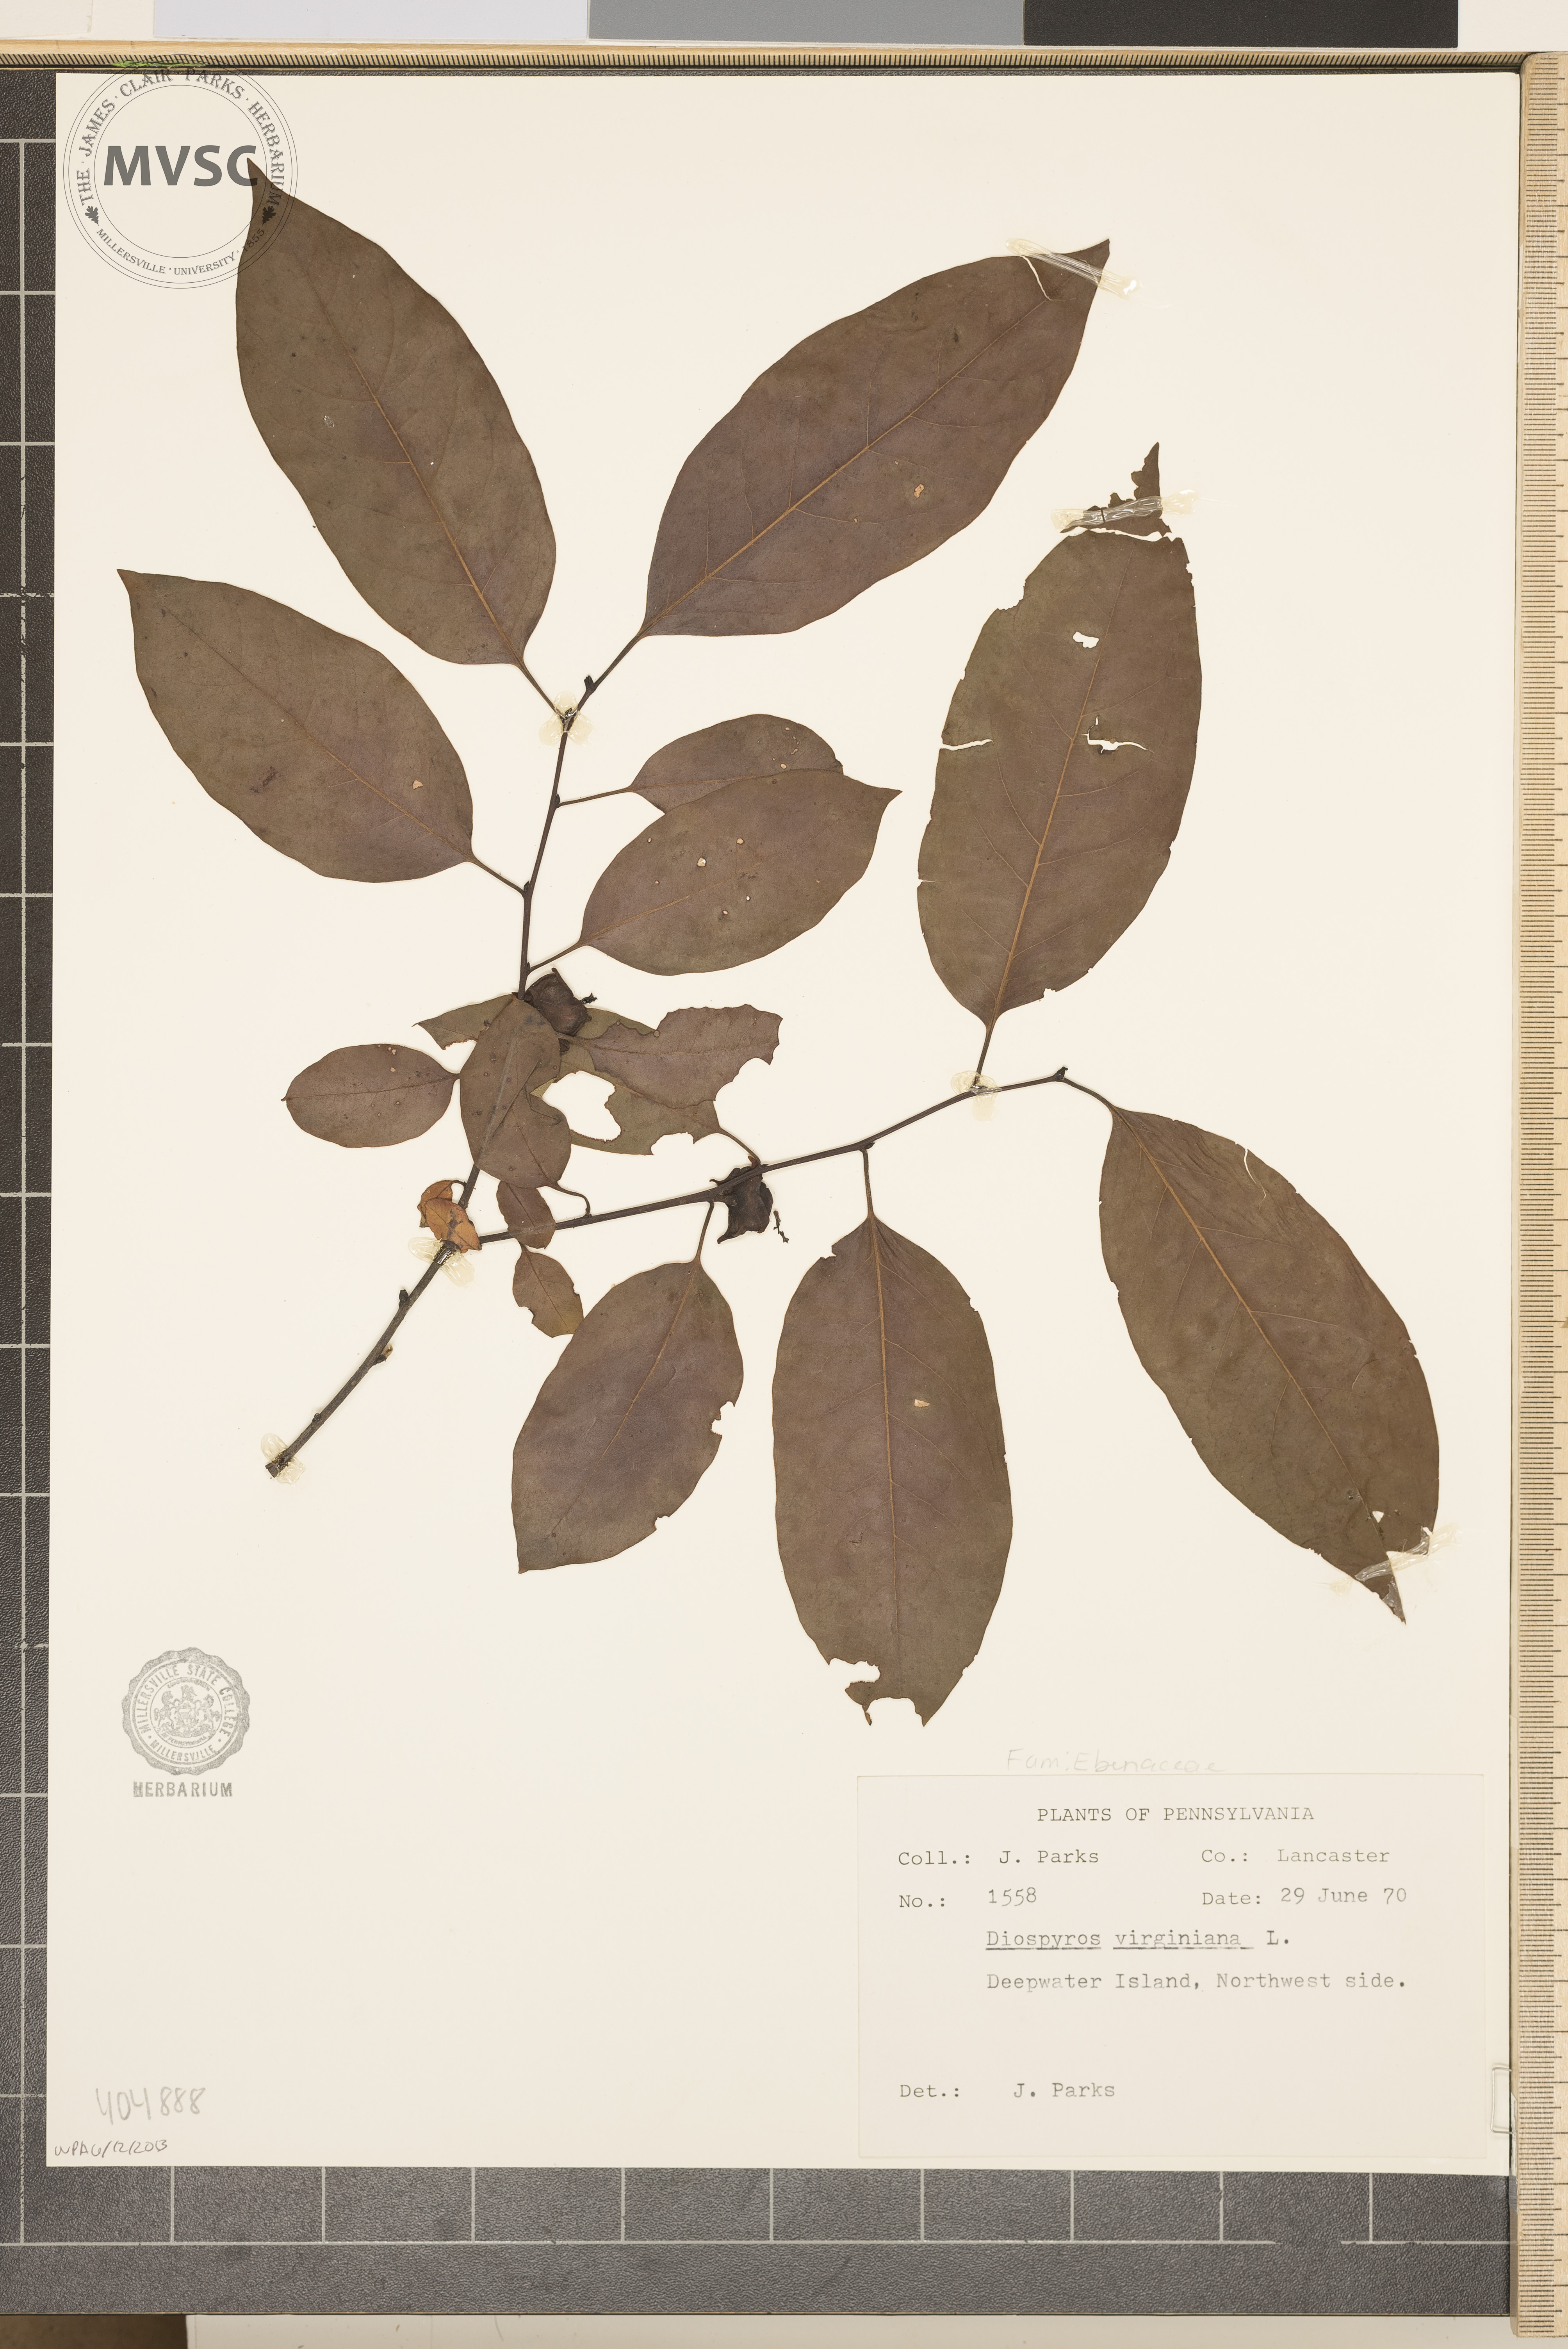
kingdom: Plantae
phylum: Tracheophyta
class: Magnoliopsida
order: Ericales
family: Ebenaceae
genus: Diospyros
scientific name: Diospyros virginiana
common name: Persimmon
